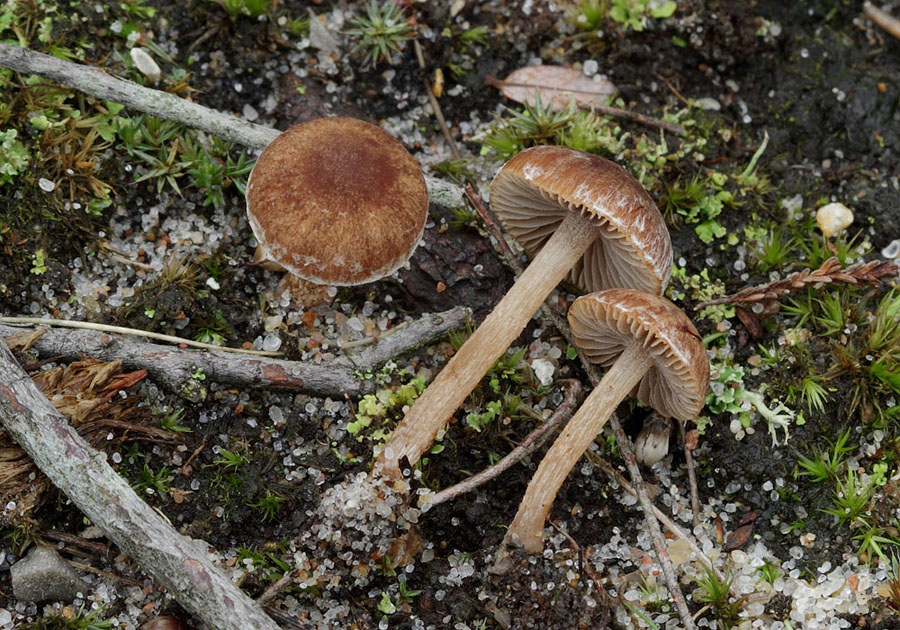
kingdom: Fungi
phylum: Basidiomycota
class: Agaricomycetes
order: Agaricales
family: Psathyrellaceae
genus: Psathyrella
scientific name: Psathyrella flexispora
